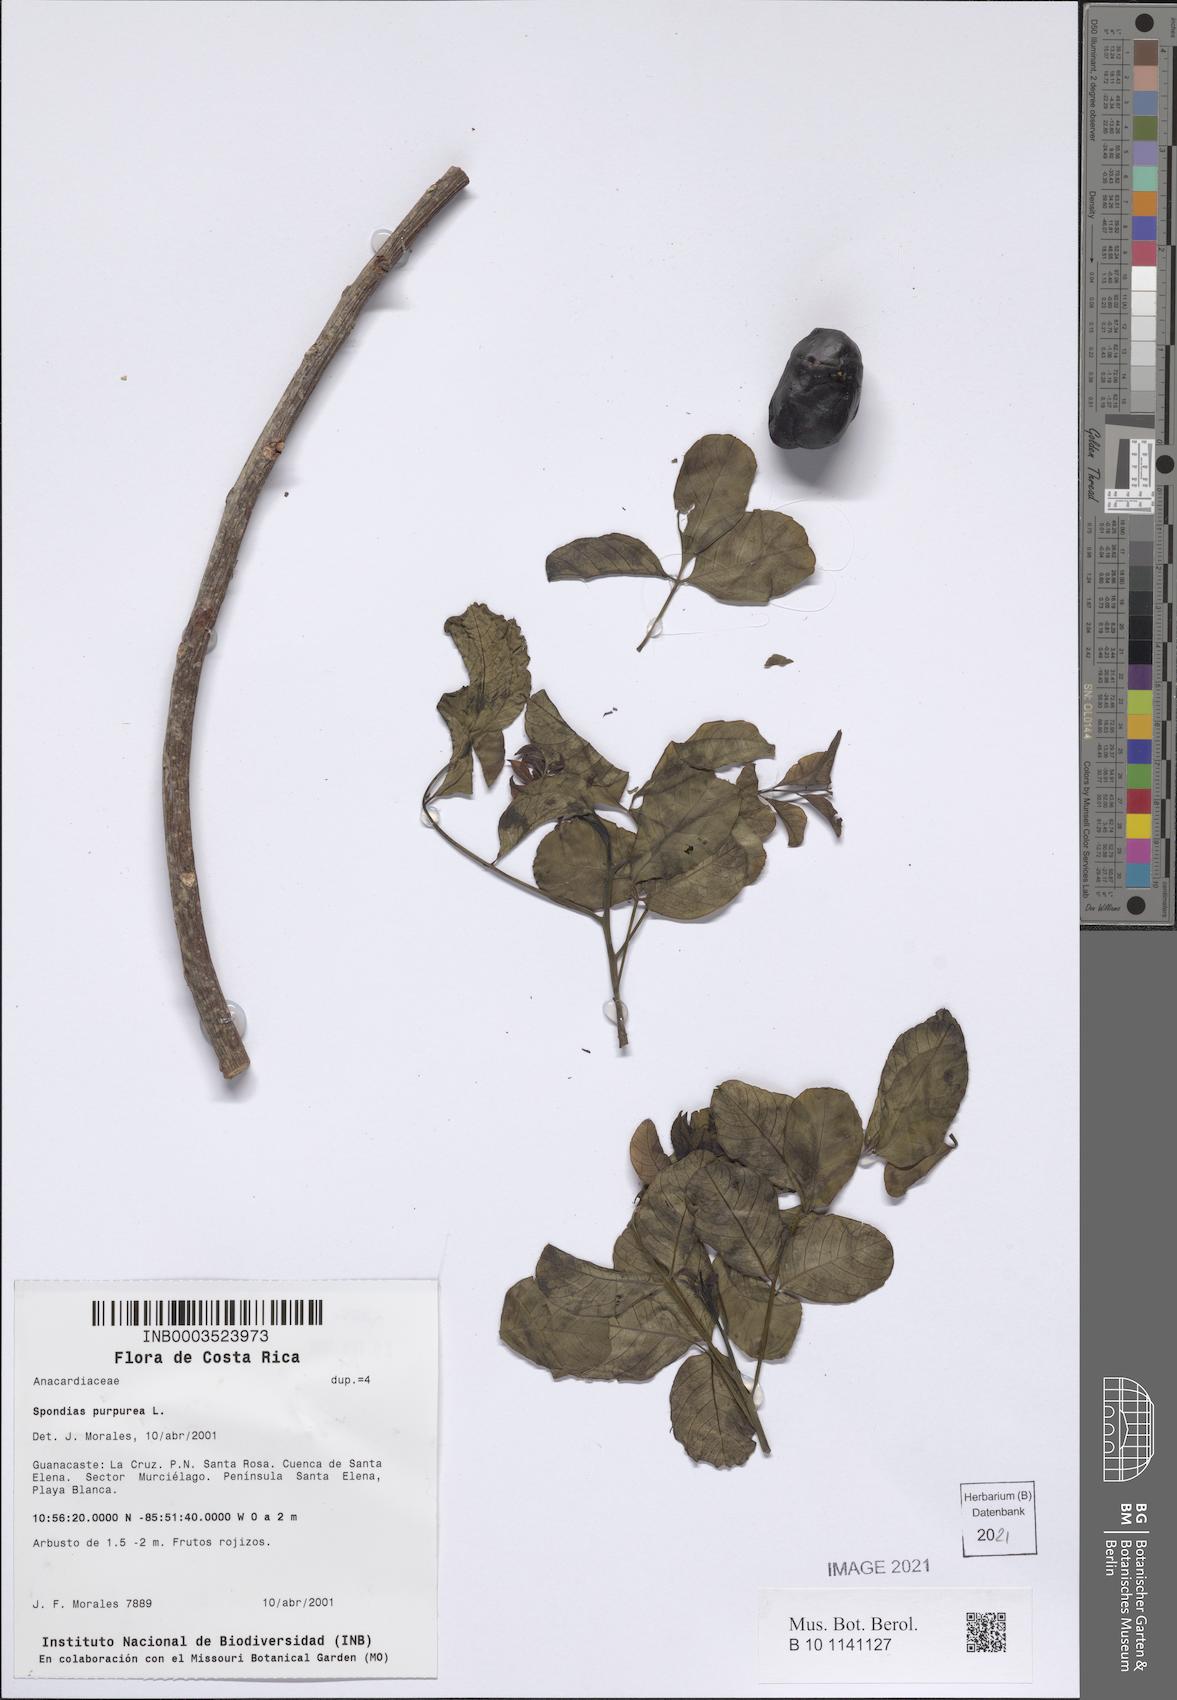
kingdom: Plantae
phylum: Tracheophyta
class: Magnoliopsida
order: Sapindales
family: Anacardiaceae
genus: Spondias
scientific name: Spondias purpurea
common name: Purple mombin
